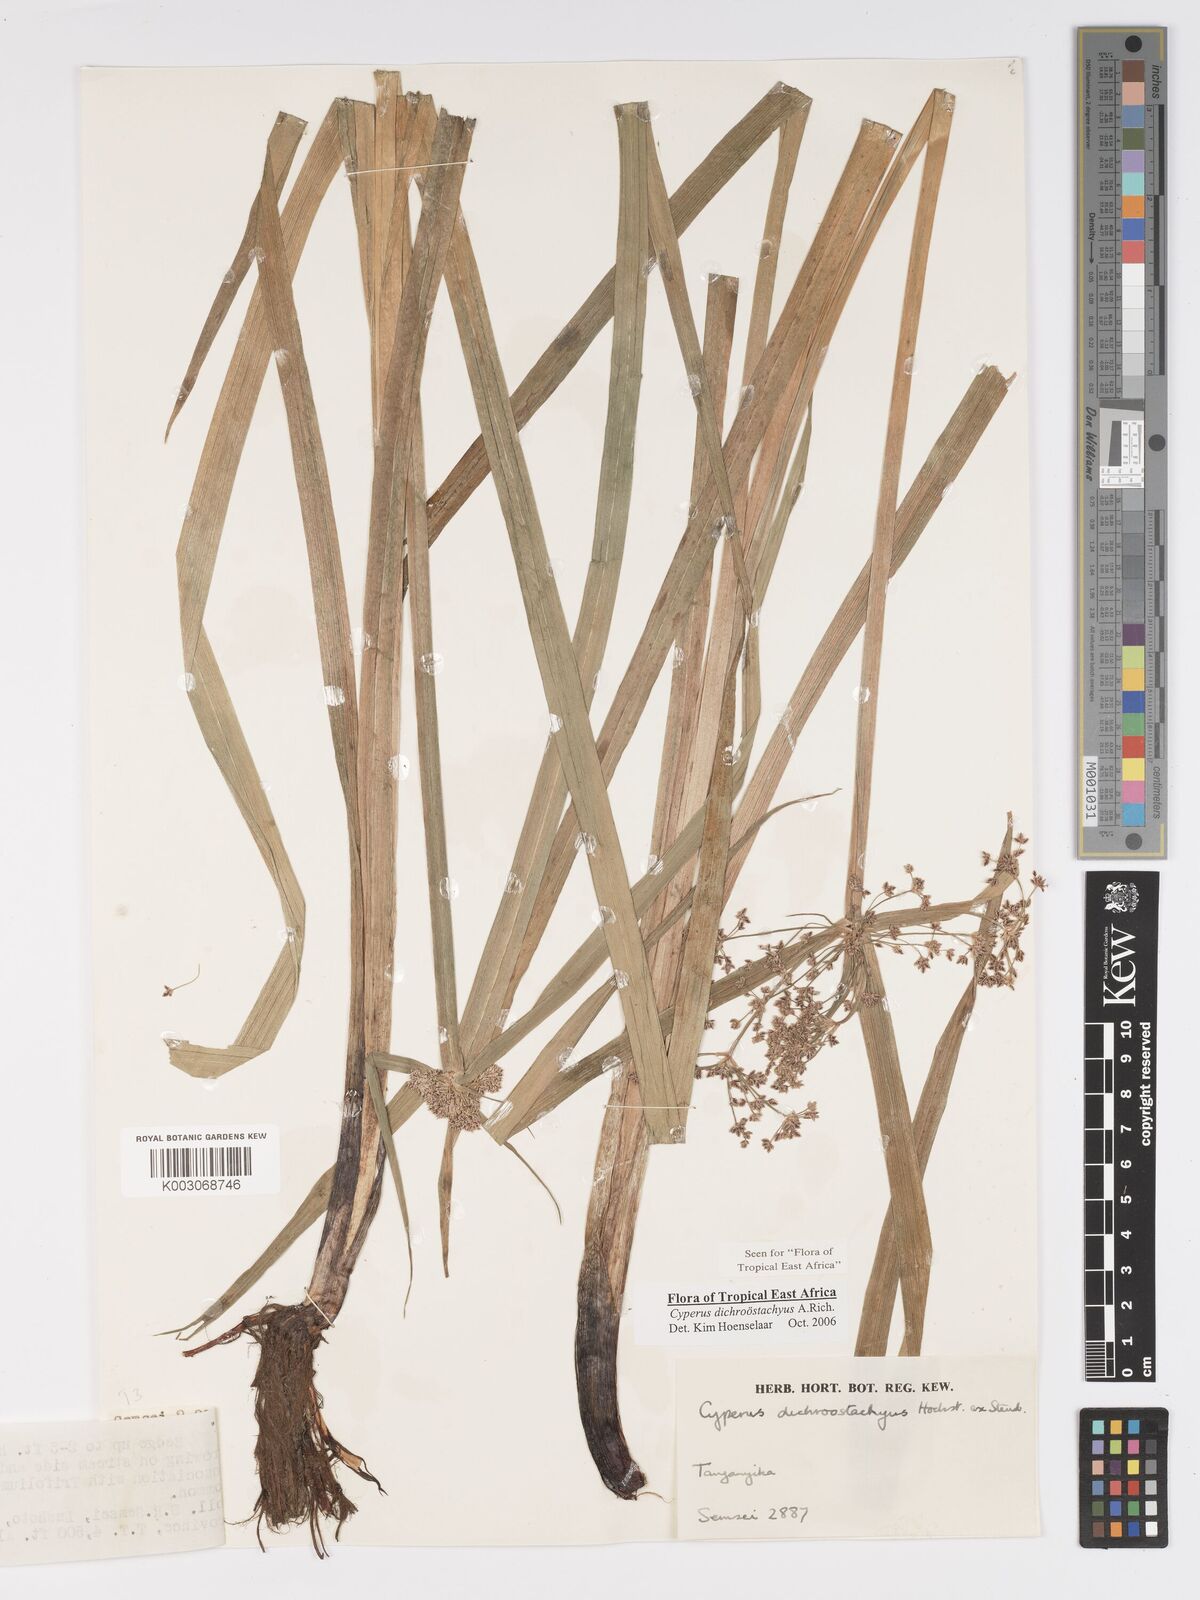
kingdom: Plantae
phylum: Tracheophyta
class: Liliopsida
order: Poales
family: Cyperaceae
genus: Cyperus
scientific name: Cyperus dichrostachyus
